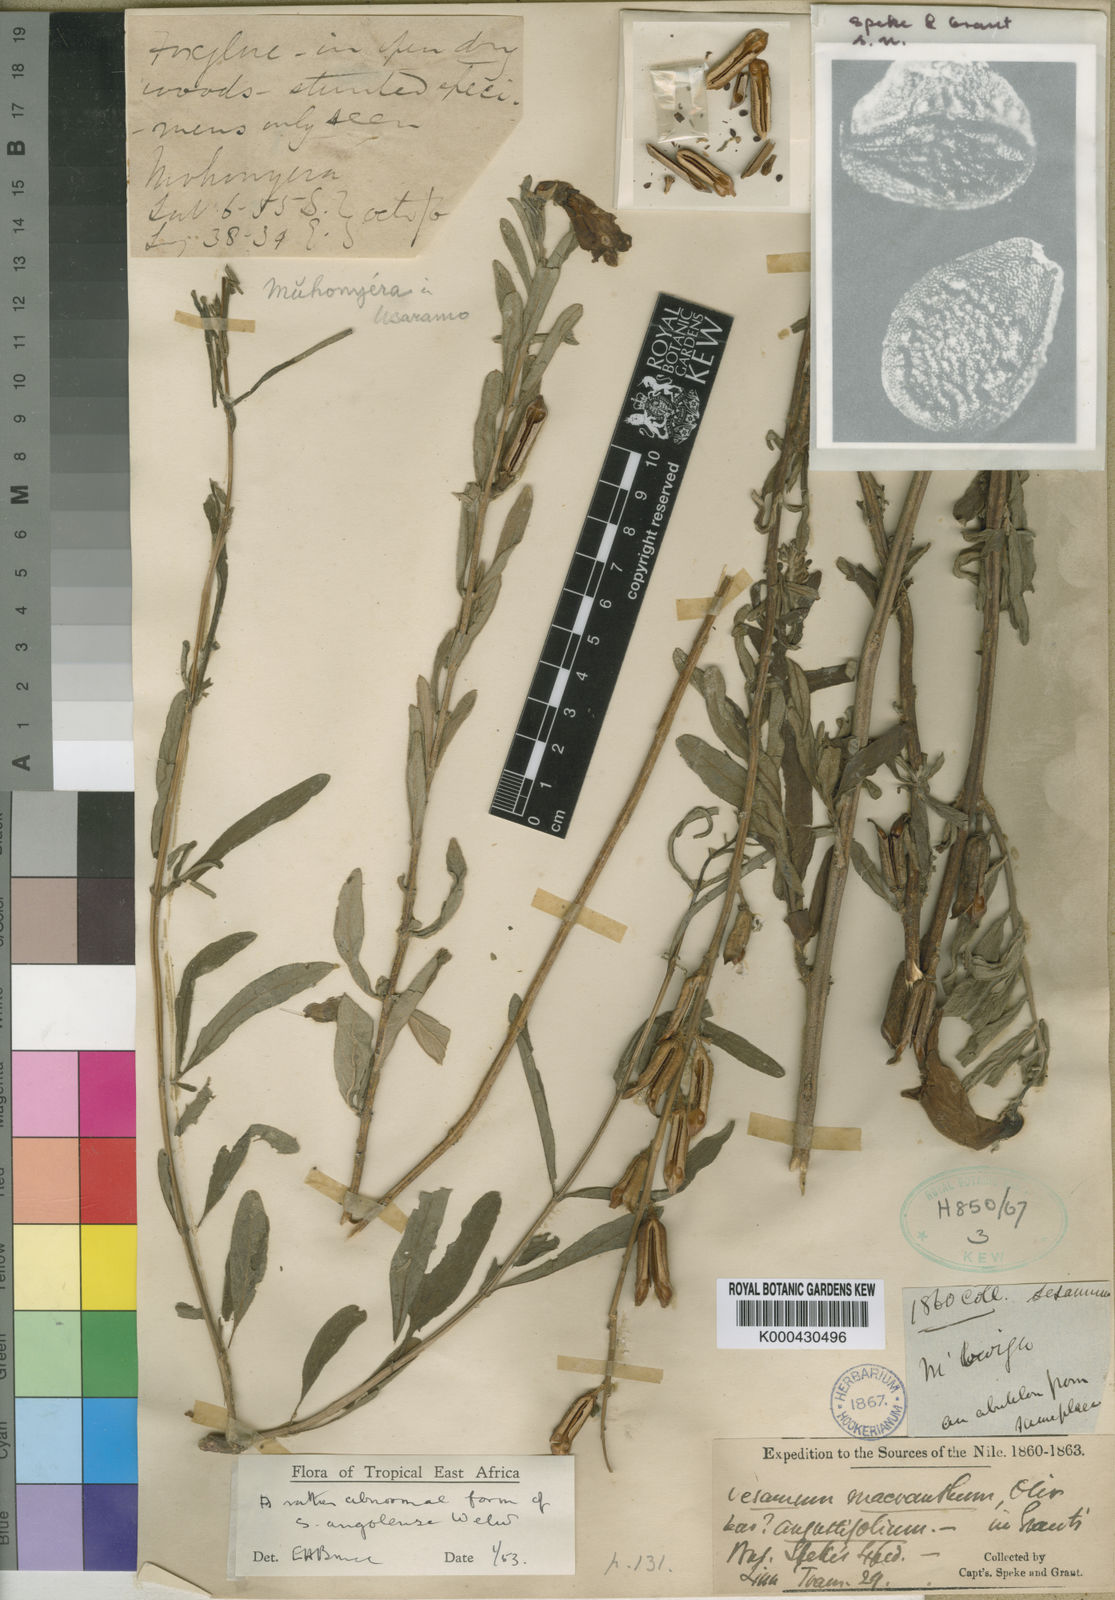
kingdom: Plantae
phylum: Tracheophyta
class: Magnoliopsida
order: Lamiales
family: Pedaliaceae
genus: Sesamum
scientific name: Sesamum angolense
